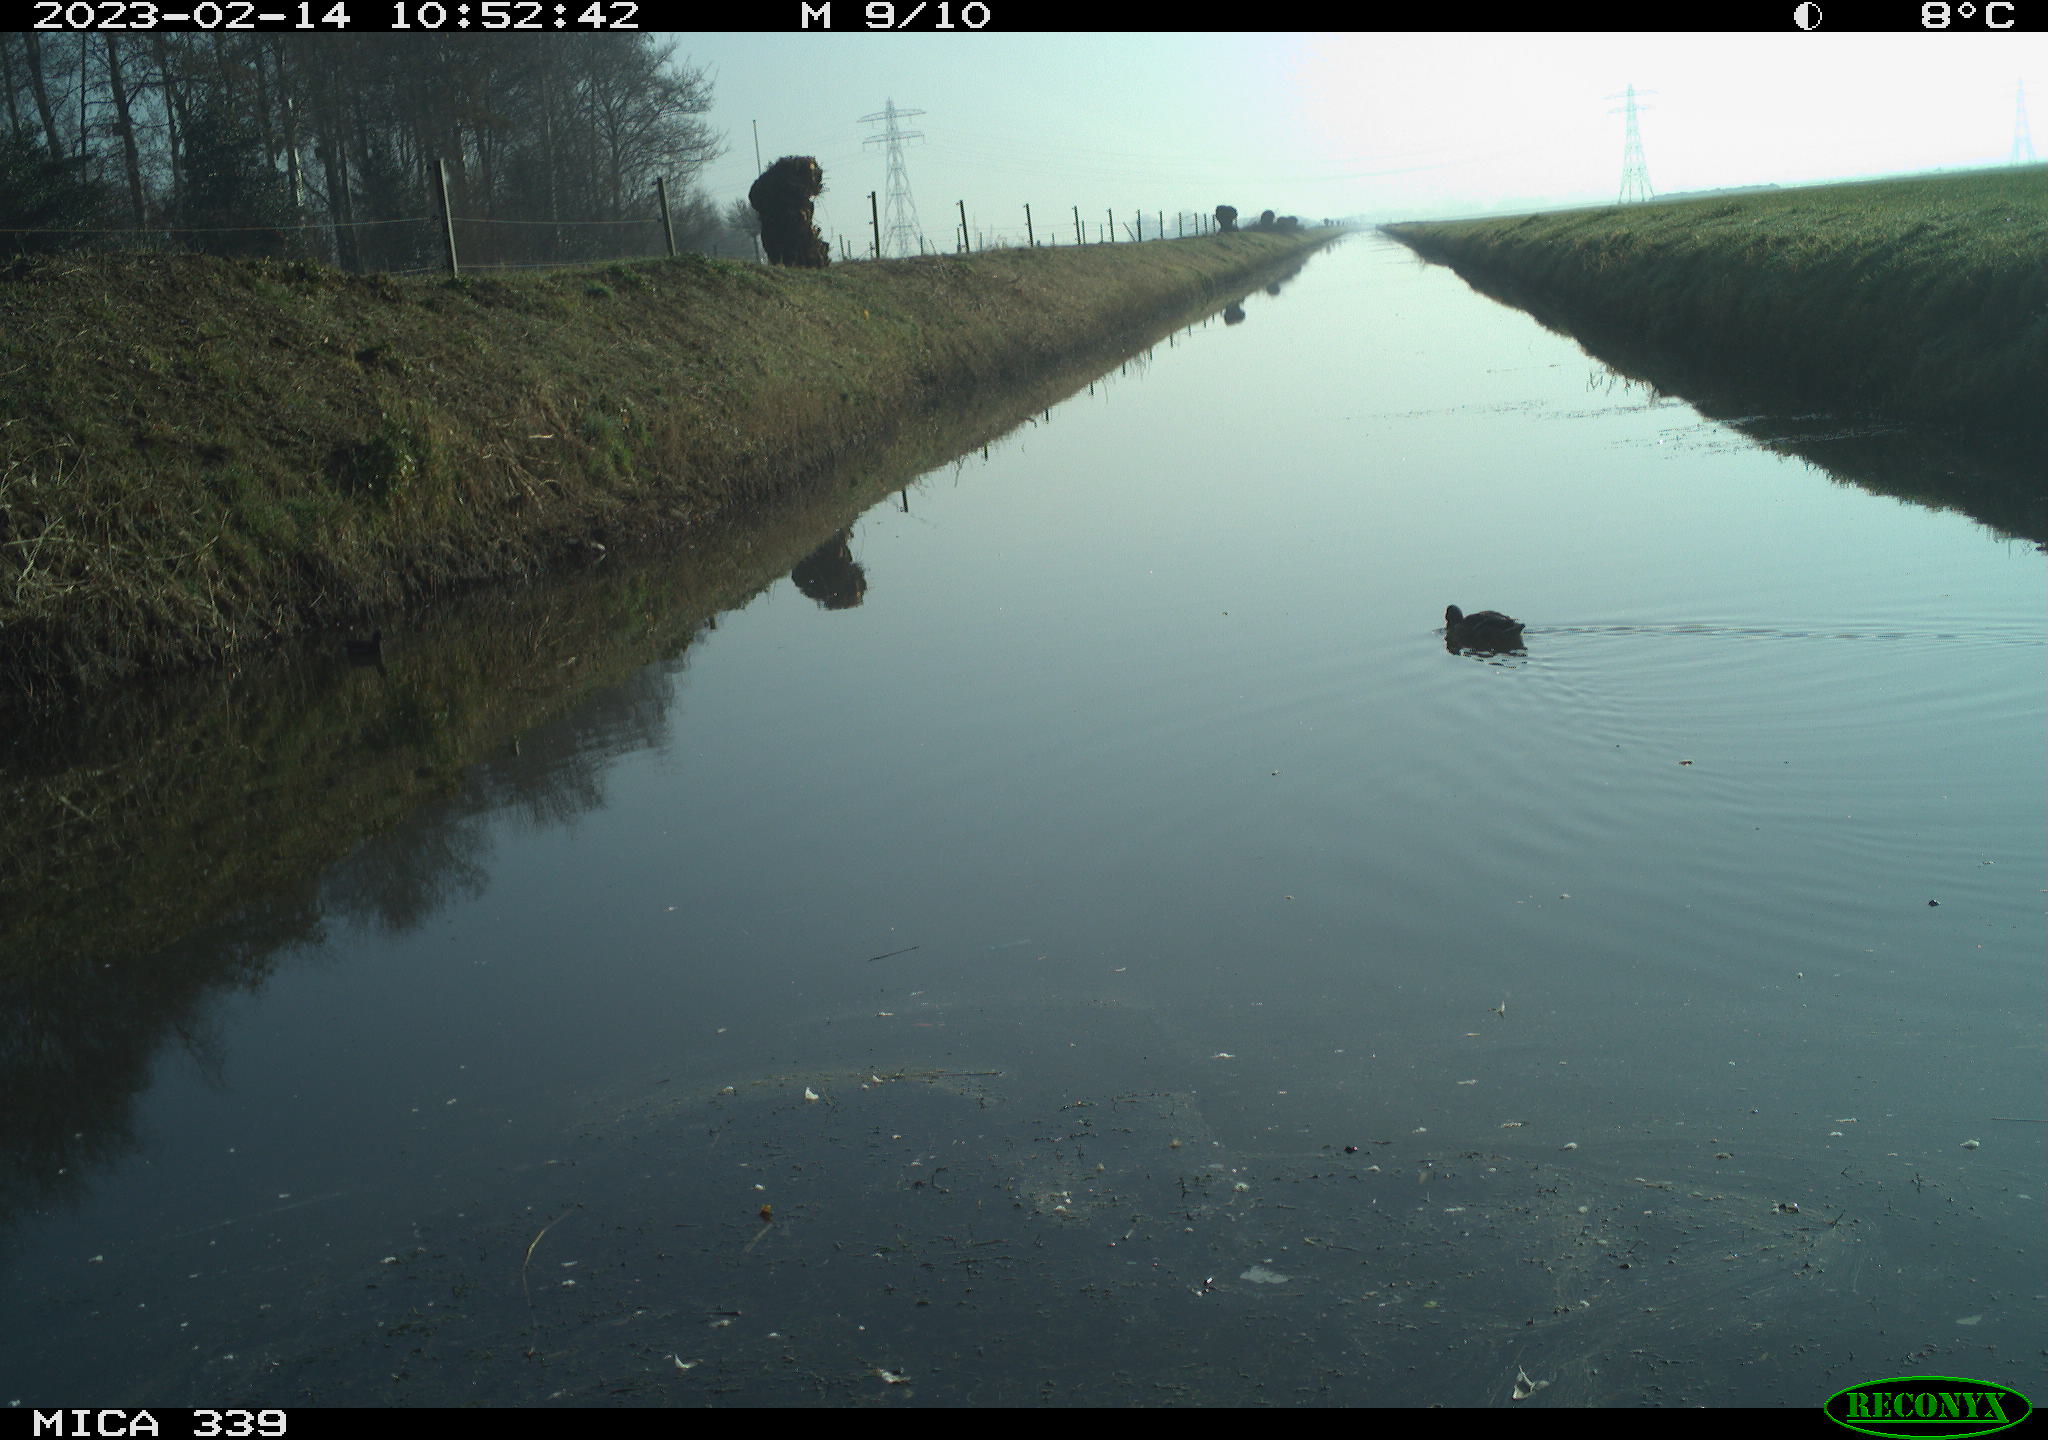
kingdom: Animalia
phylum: Chordata
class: Aves
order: Anseriformes
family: Anatidae
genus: Anas
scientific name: Anas
